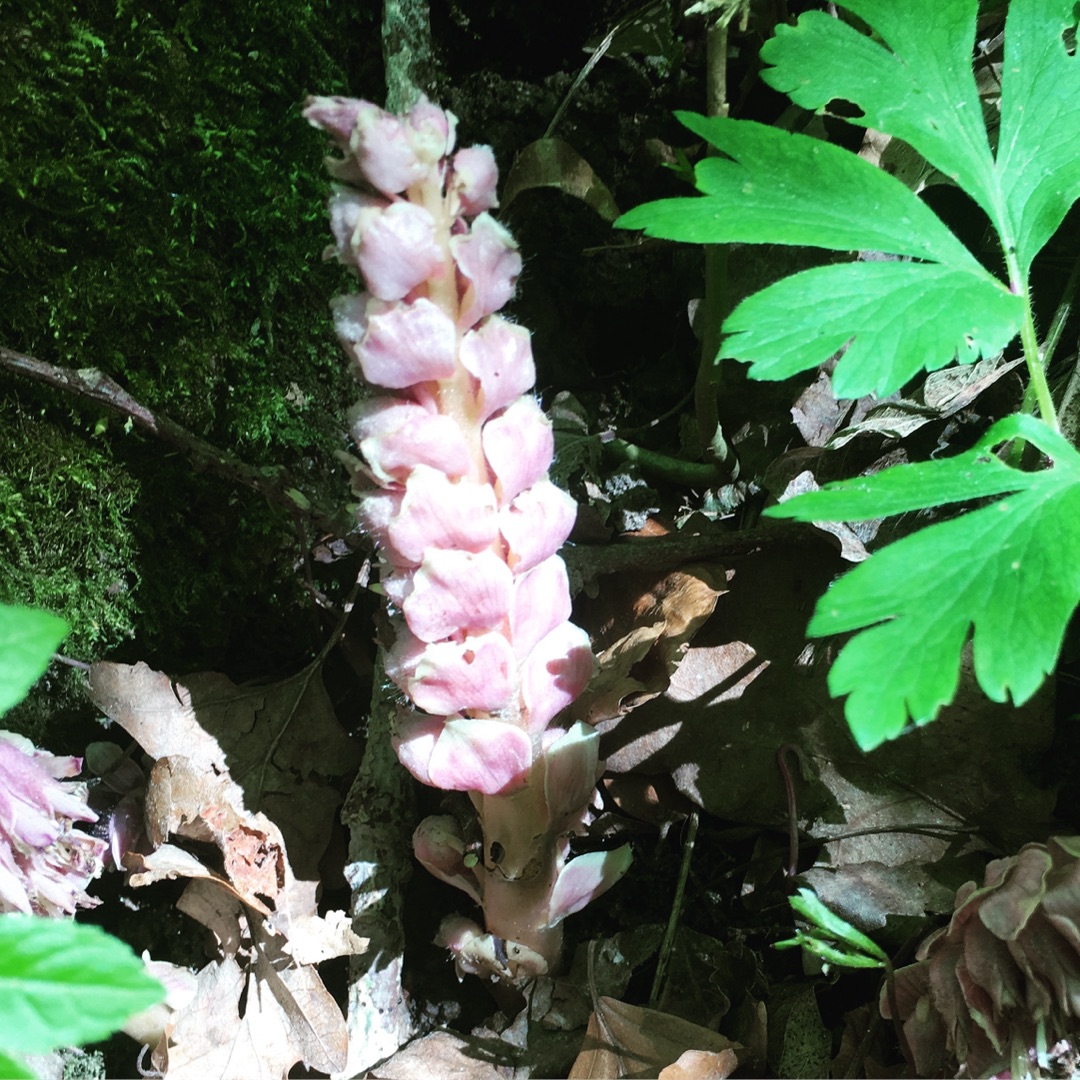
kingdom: Plantae
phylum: Tracheophyta
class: Magnoliopsida
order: Lamiales
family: Orobanchaceae
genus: Lathraea
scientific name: Lathraea squamaria
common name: Skælrod
